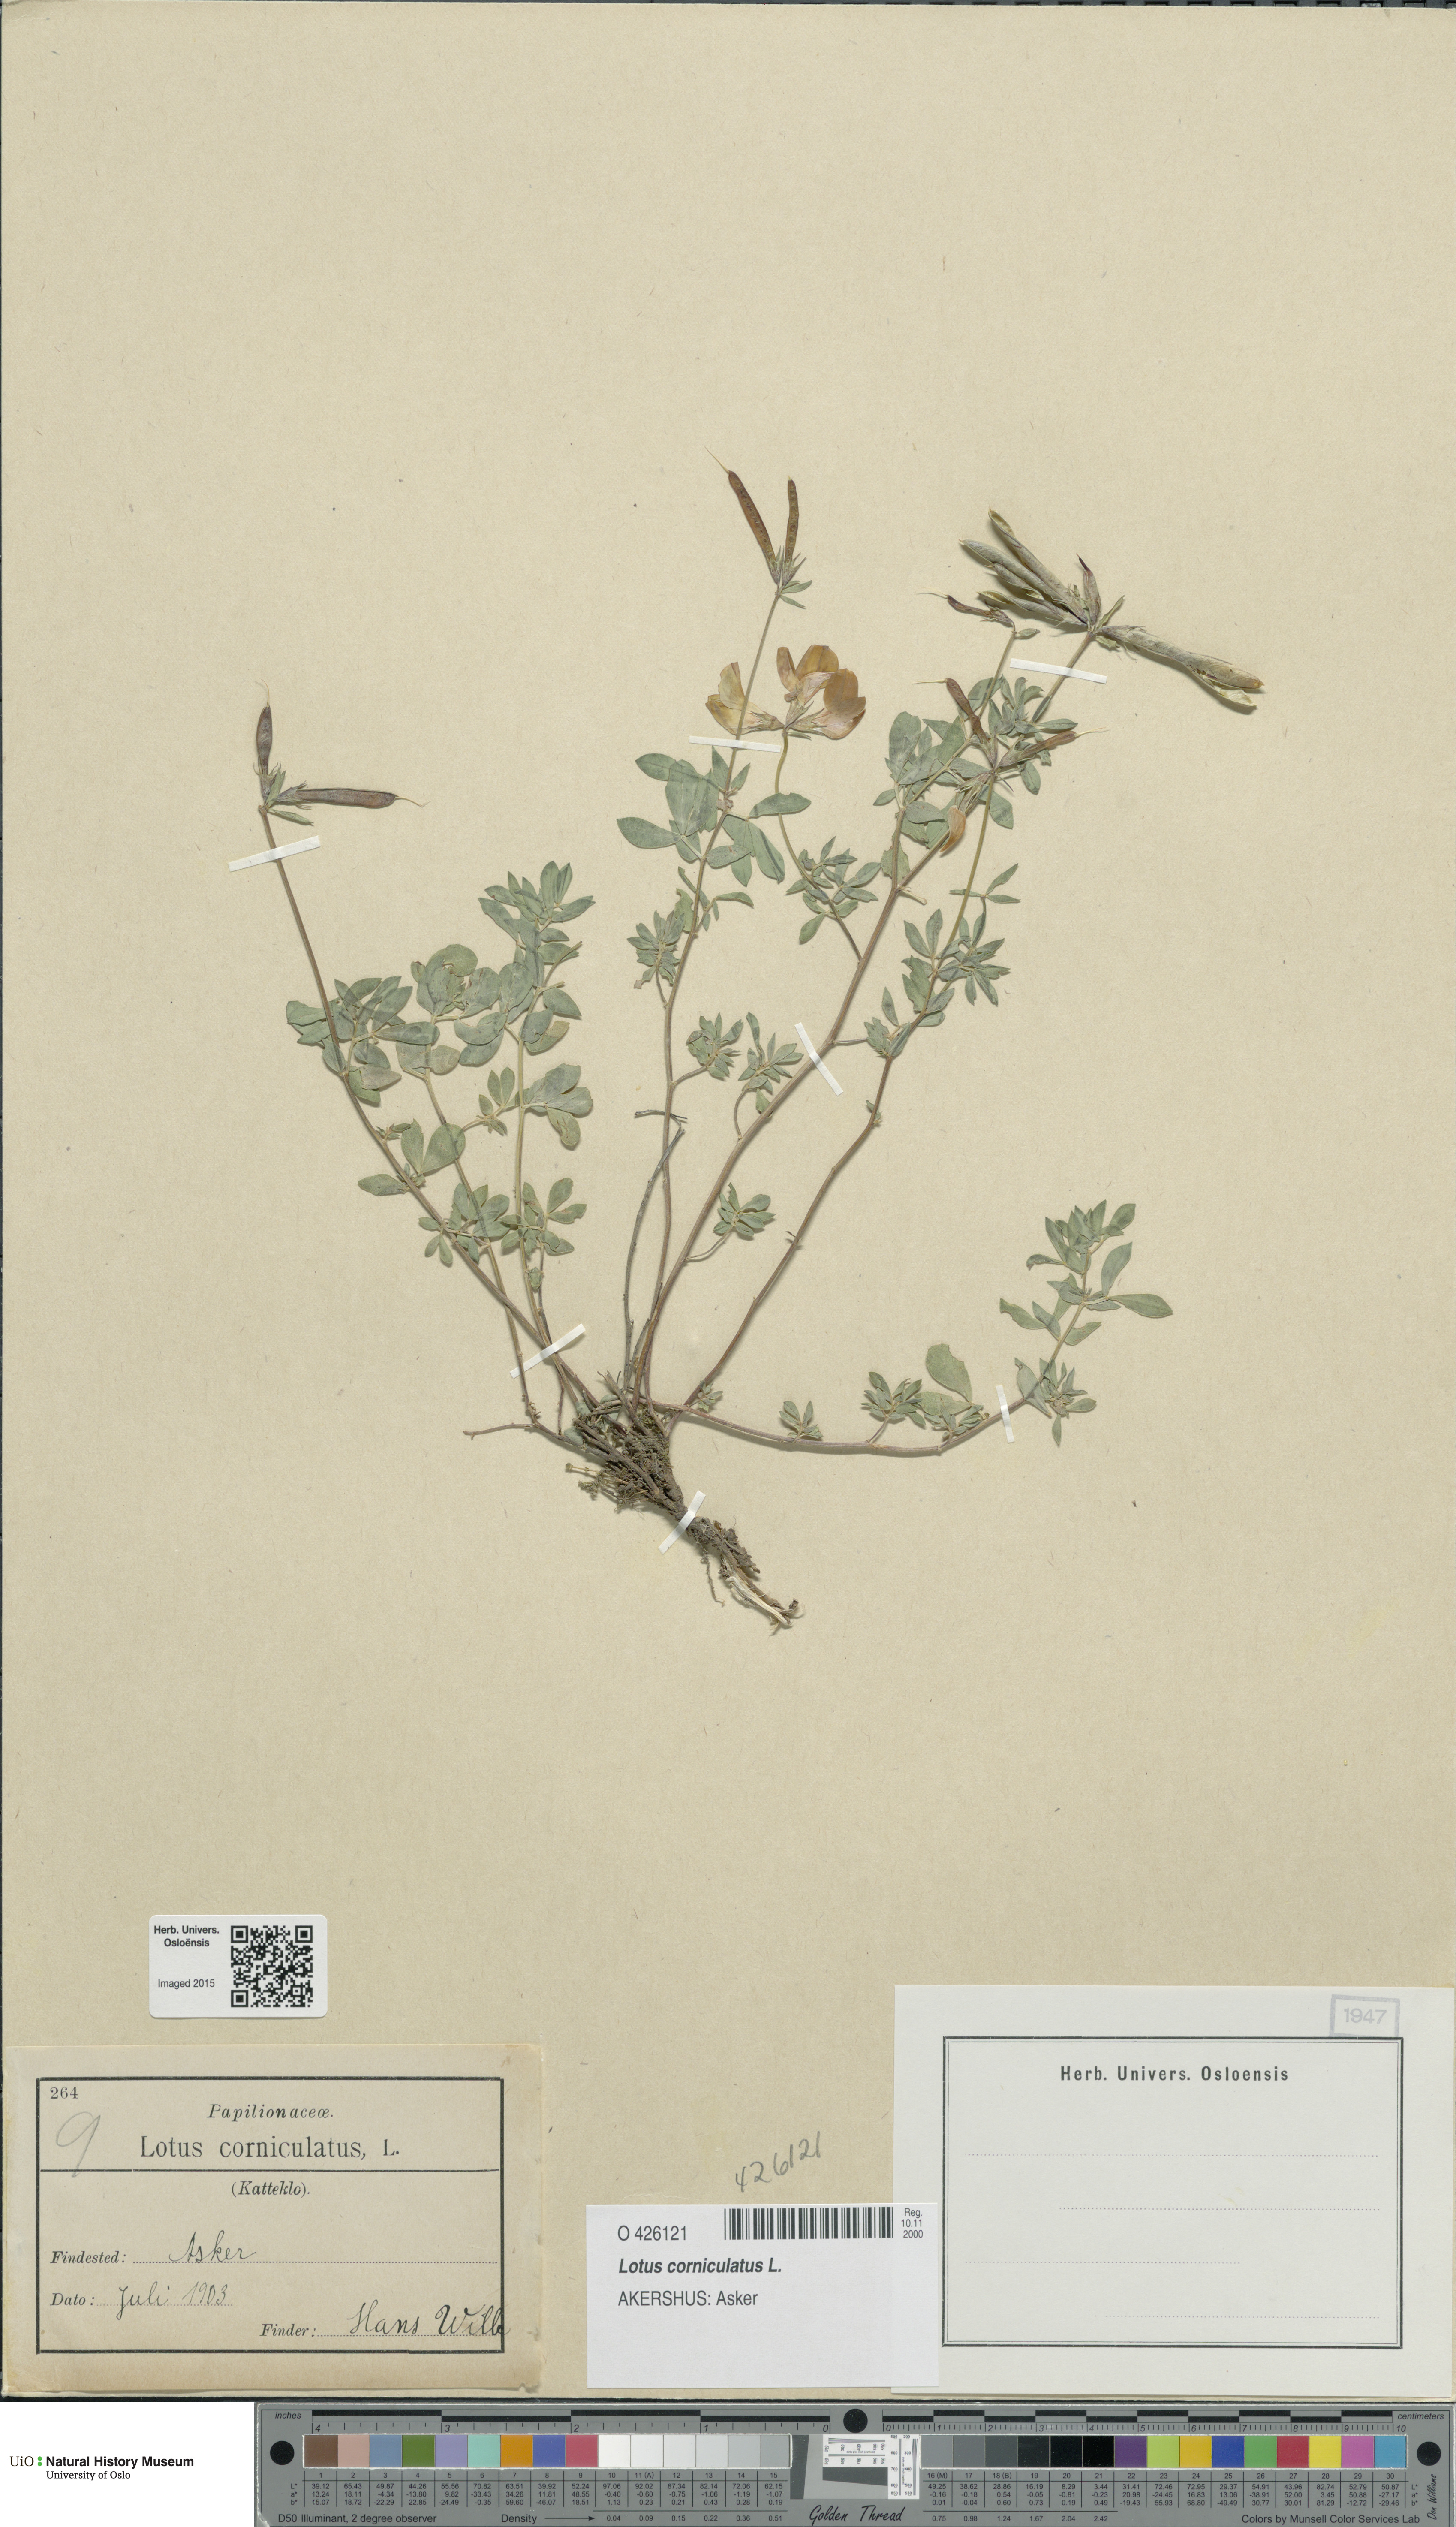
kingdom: Plantae
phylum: Tracheophyta
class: Magnoliopsida
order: Fabales
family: Fabaceae
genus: Lotus
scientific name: Lotus corniculatus
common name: Common bird's-foot-trefoil
